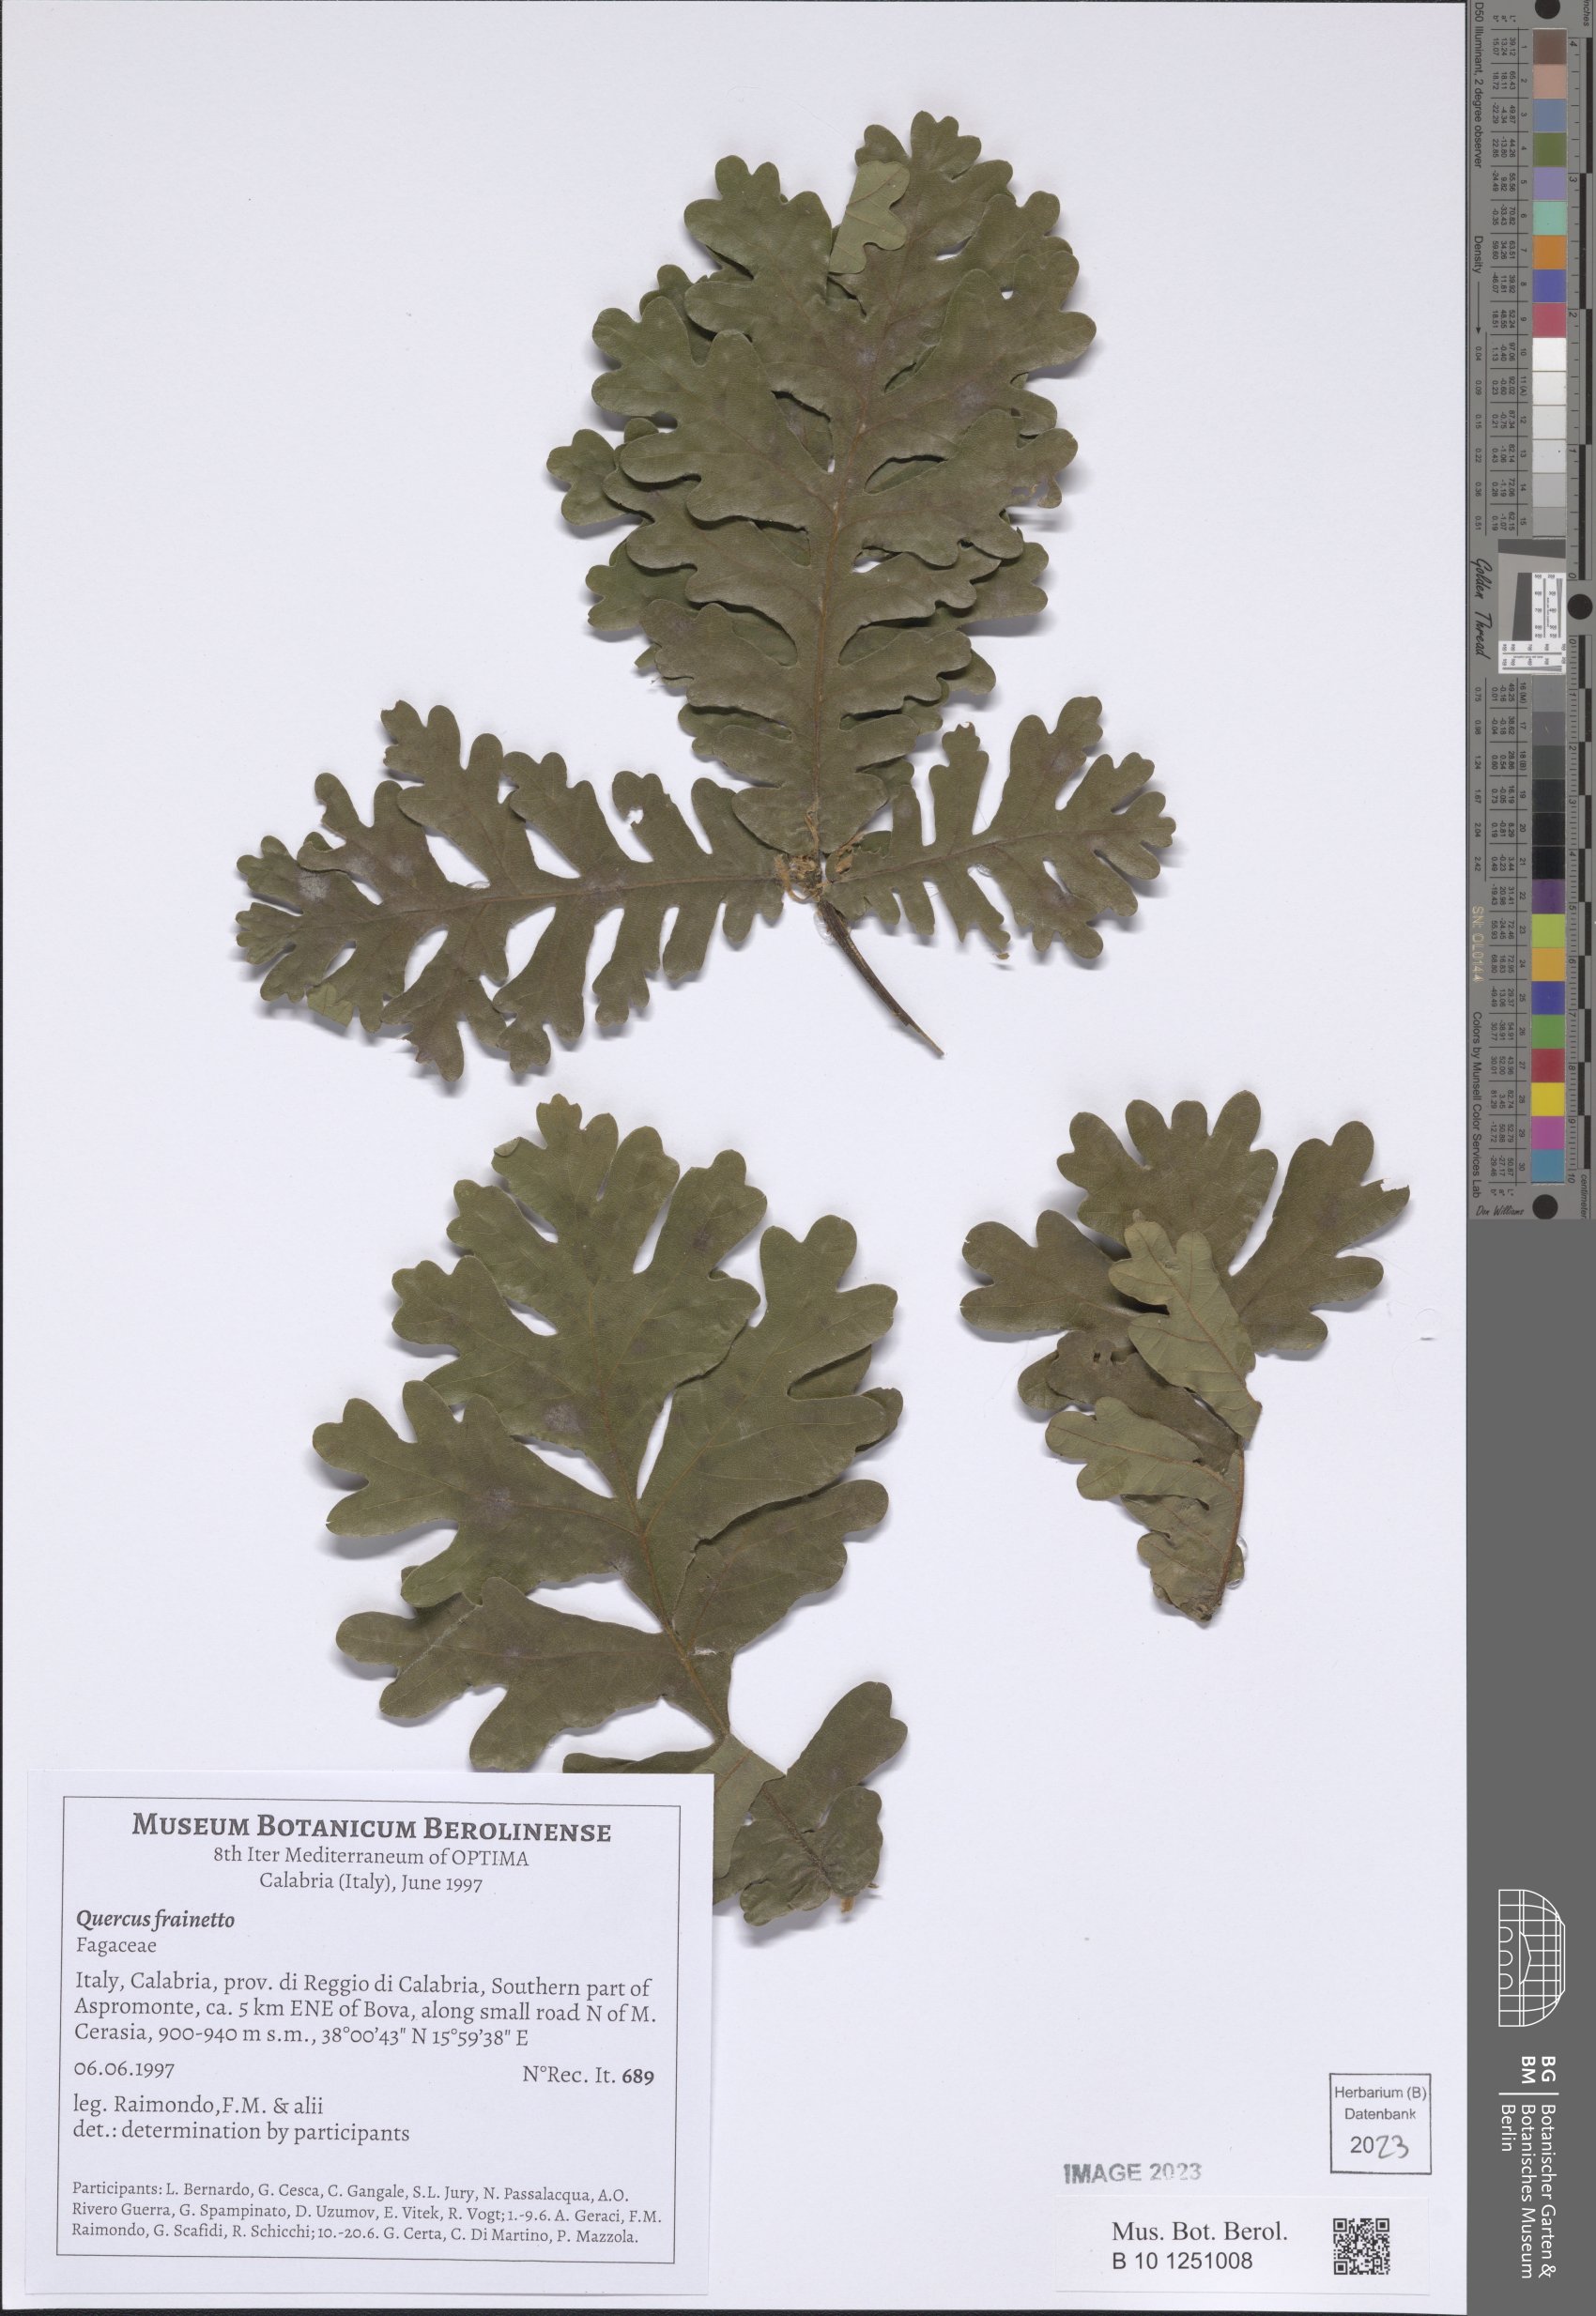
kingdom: Plantae
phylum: Tracheophyta
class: Magnoliopsida
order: Fagales
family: Fagaceae
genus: Quercus
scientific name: Quercus conferta
